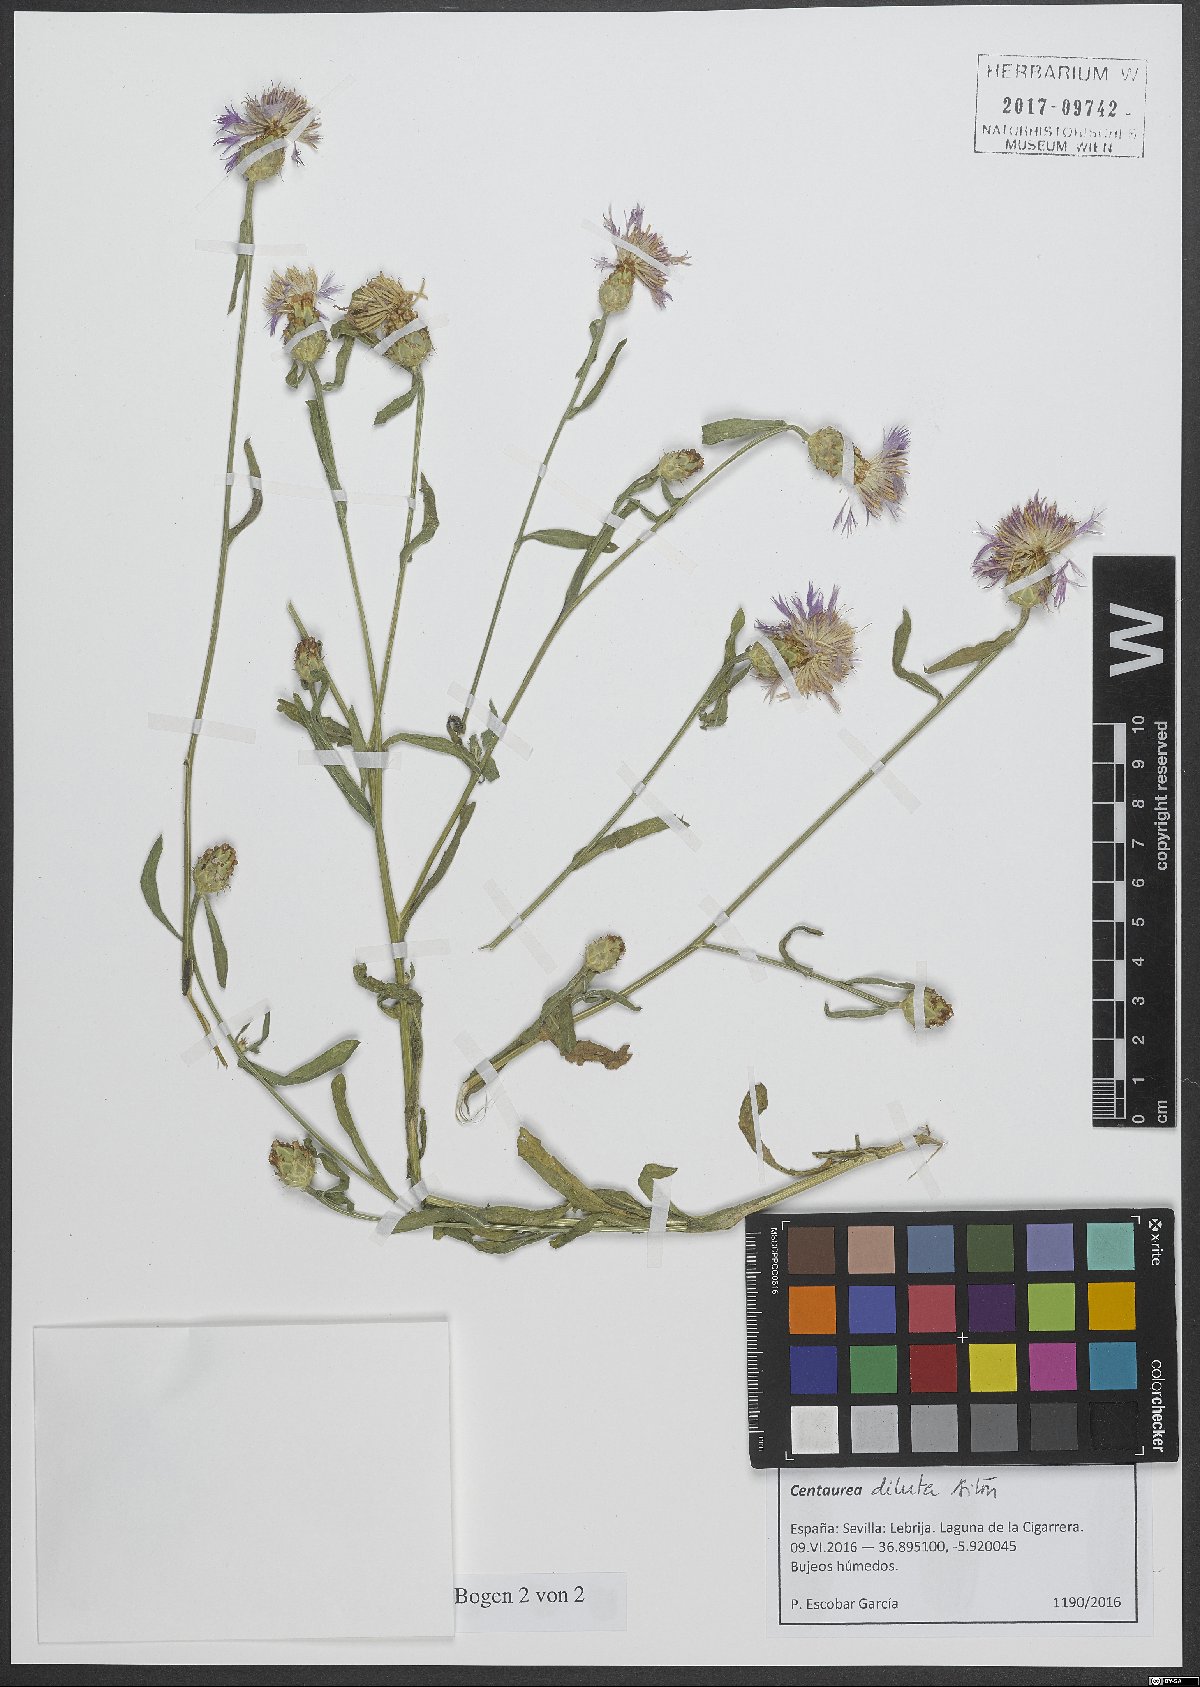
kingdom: Plantae
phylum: Tracheophyta
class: Magnoliopsida
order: Asterales
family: Asteraceae
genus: Centaurea
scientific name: Centaurea diluta
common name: Lesser star-thistle
